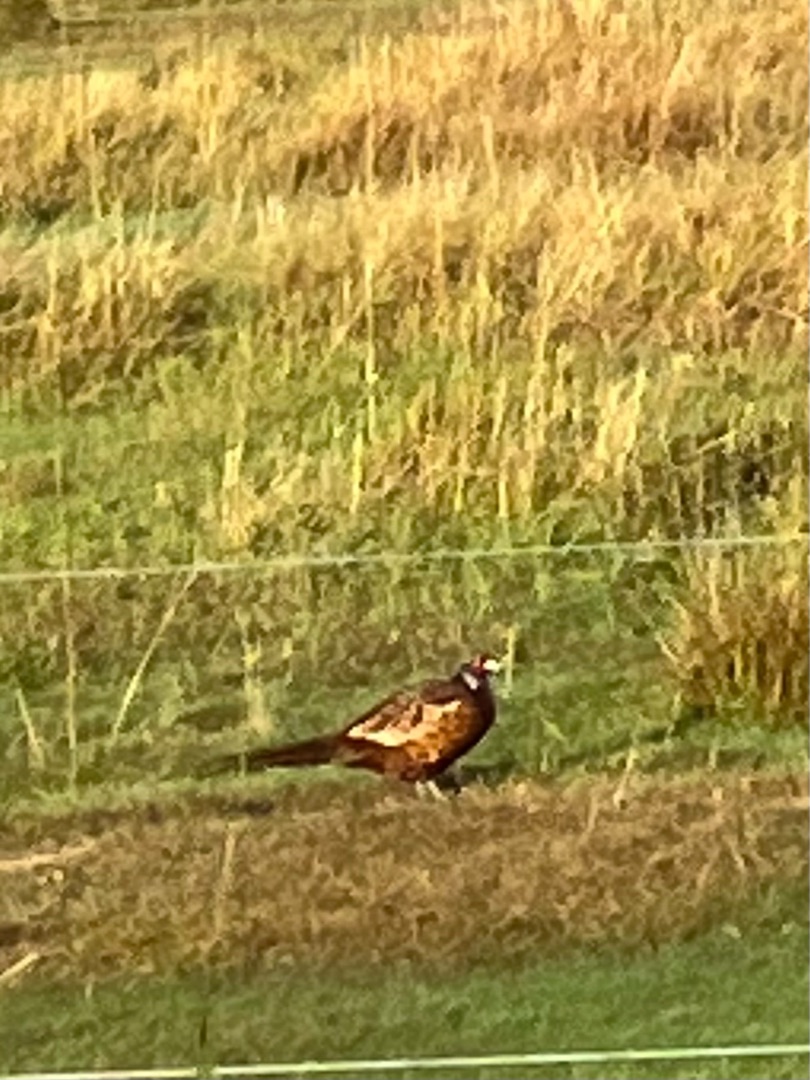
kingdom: Animalia
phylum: Chordata
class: Aves
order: Galliformes
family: Phasianidae
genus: Phasianus
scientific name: Phasianus colchicus
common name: Fasan
